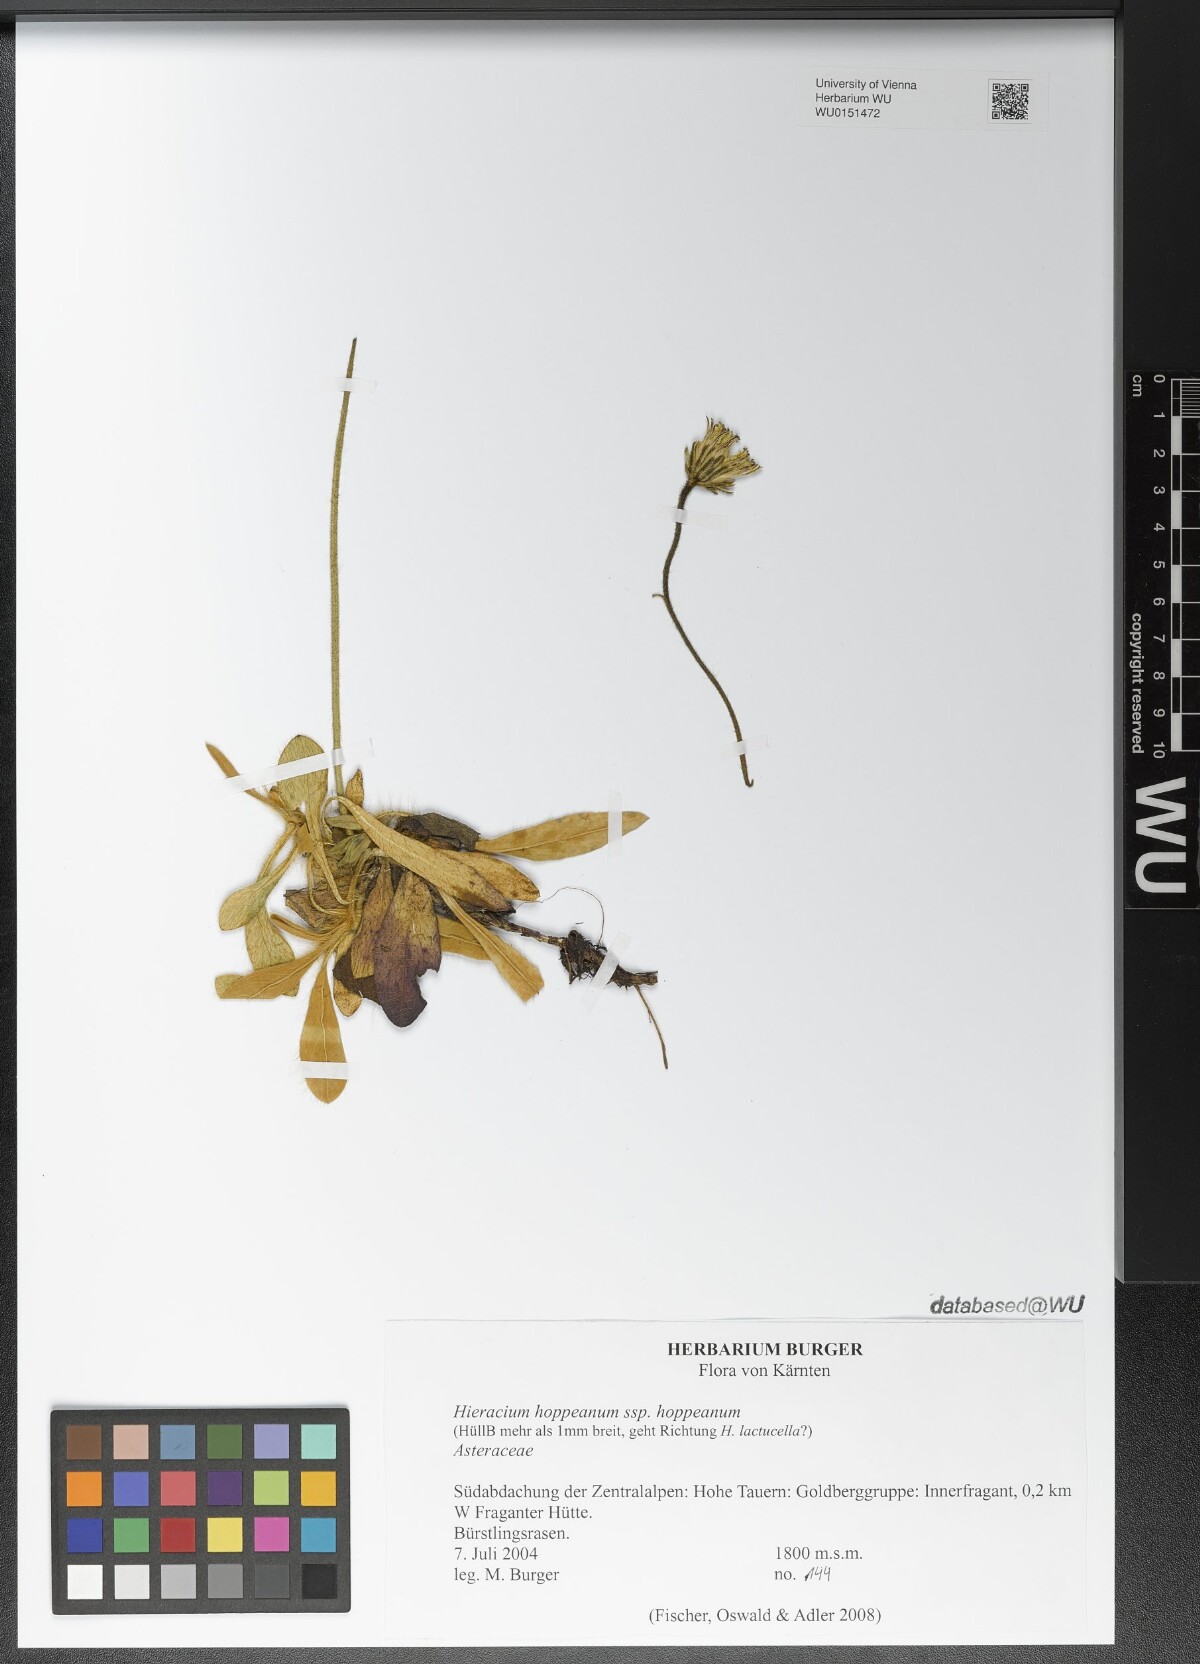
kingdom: Plantae
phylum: Tracheophyta
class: Magnoliopsida
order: Asterales
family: Asteraceae
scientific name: Asteraceae
